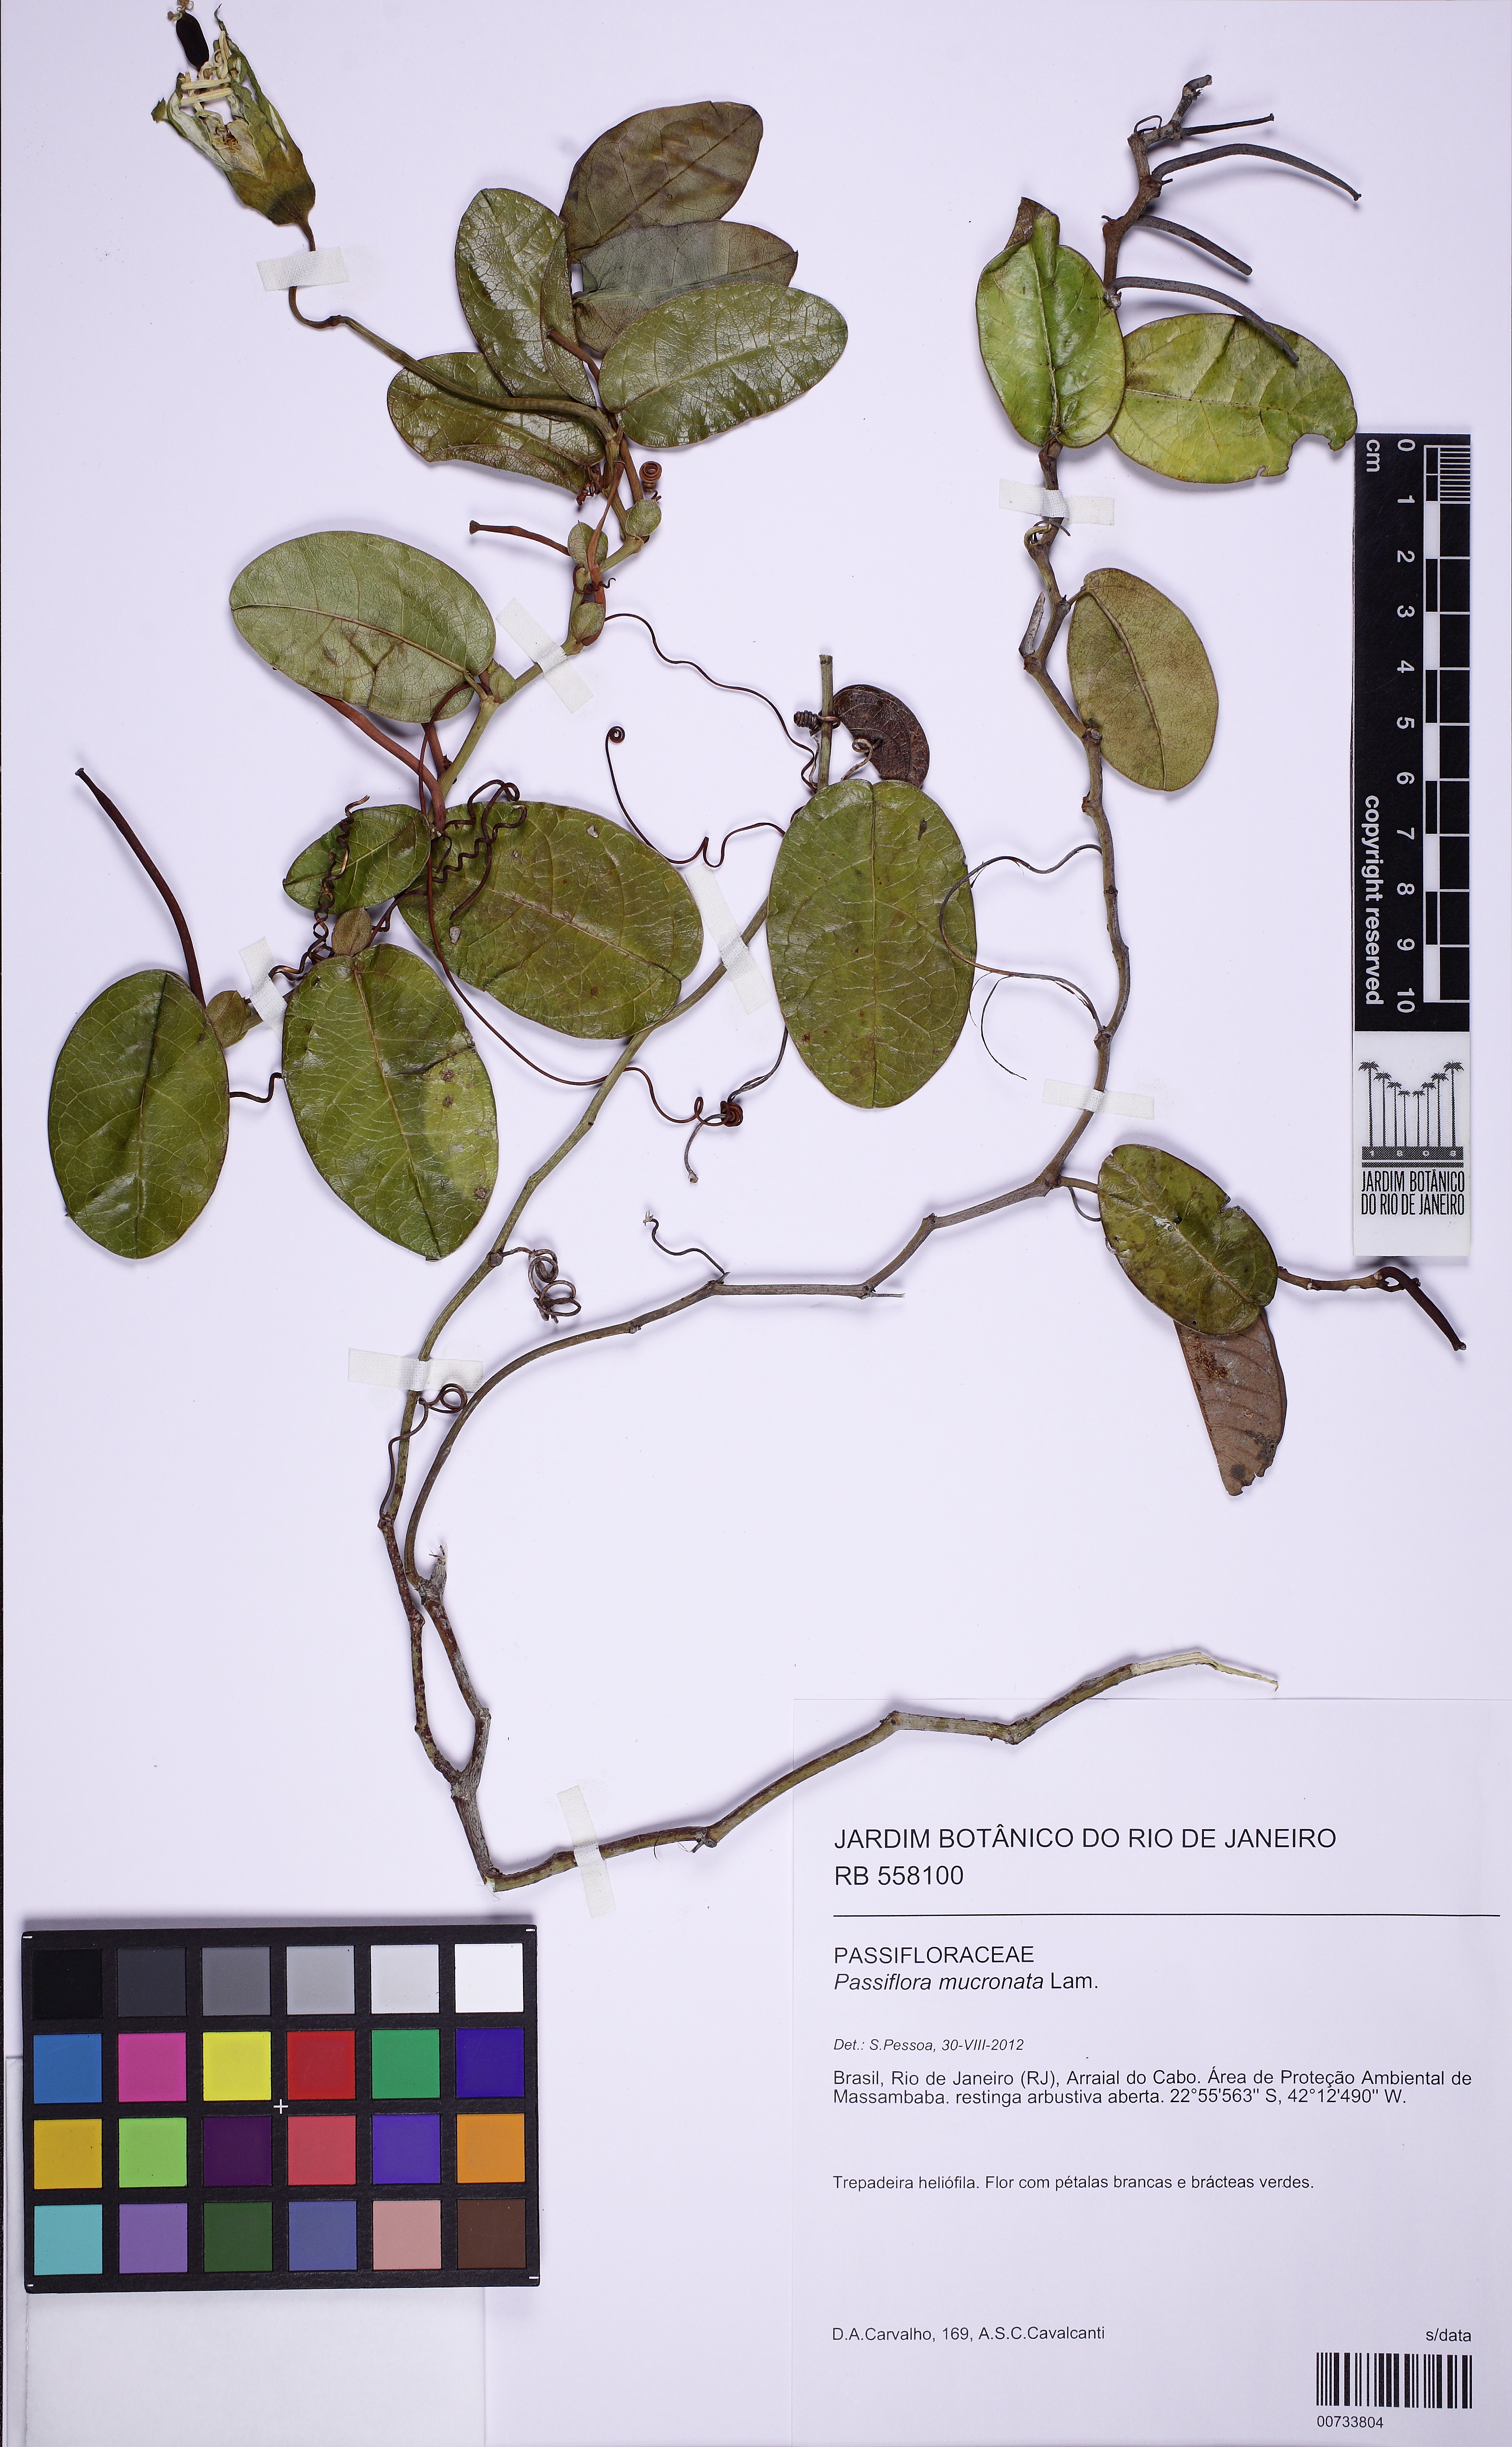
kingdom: Plantae
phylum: Tracheophyta
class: Magnoliopsida
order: Malpighiales
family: Passifloraceae
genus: Passiflora
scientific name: Passiflora mucronata
